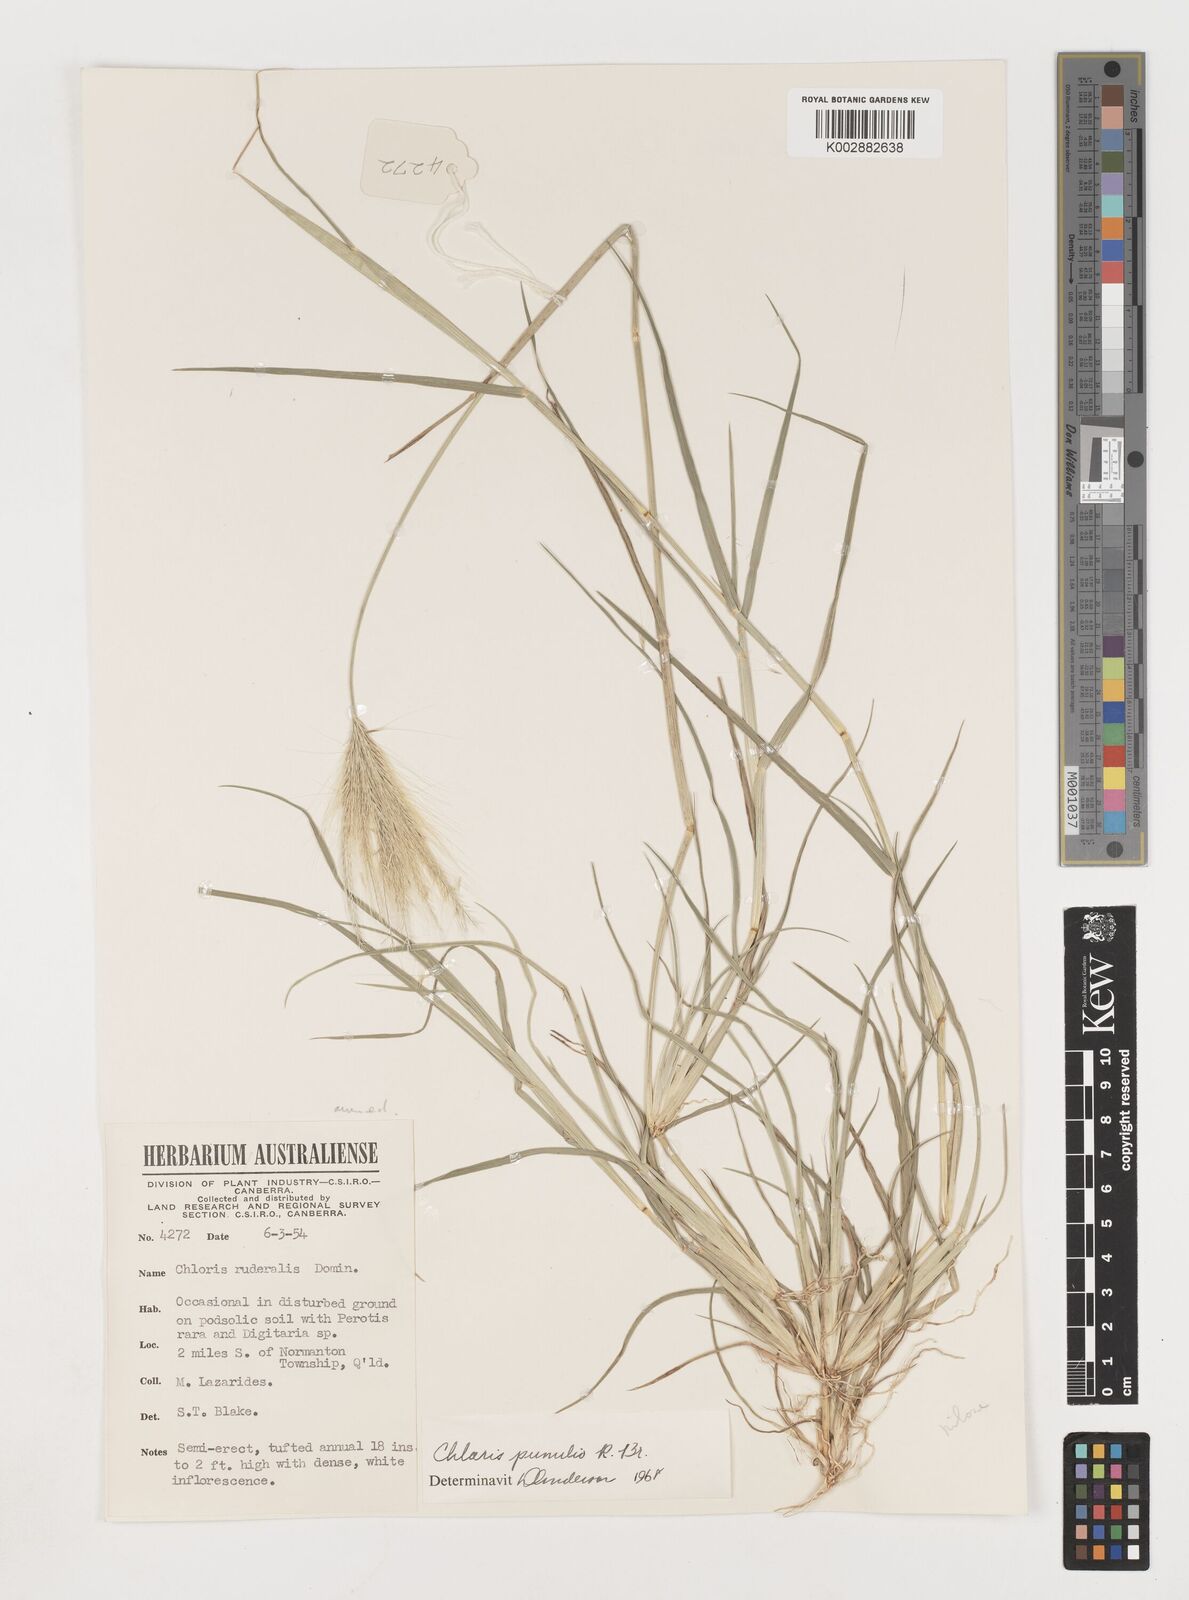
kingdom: Plantae
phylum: Tracheophyta
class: Liliopsida
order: Poales
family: Poaceae
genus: Chloris
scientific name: Chloris pumilio
